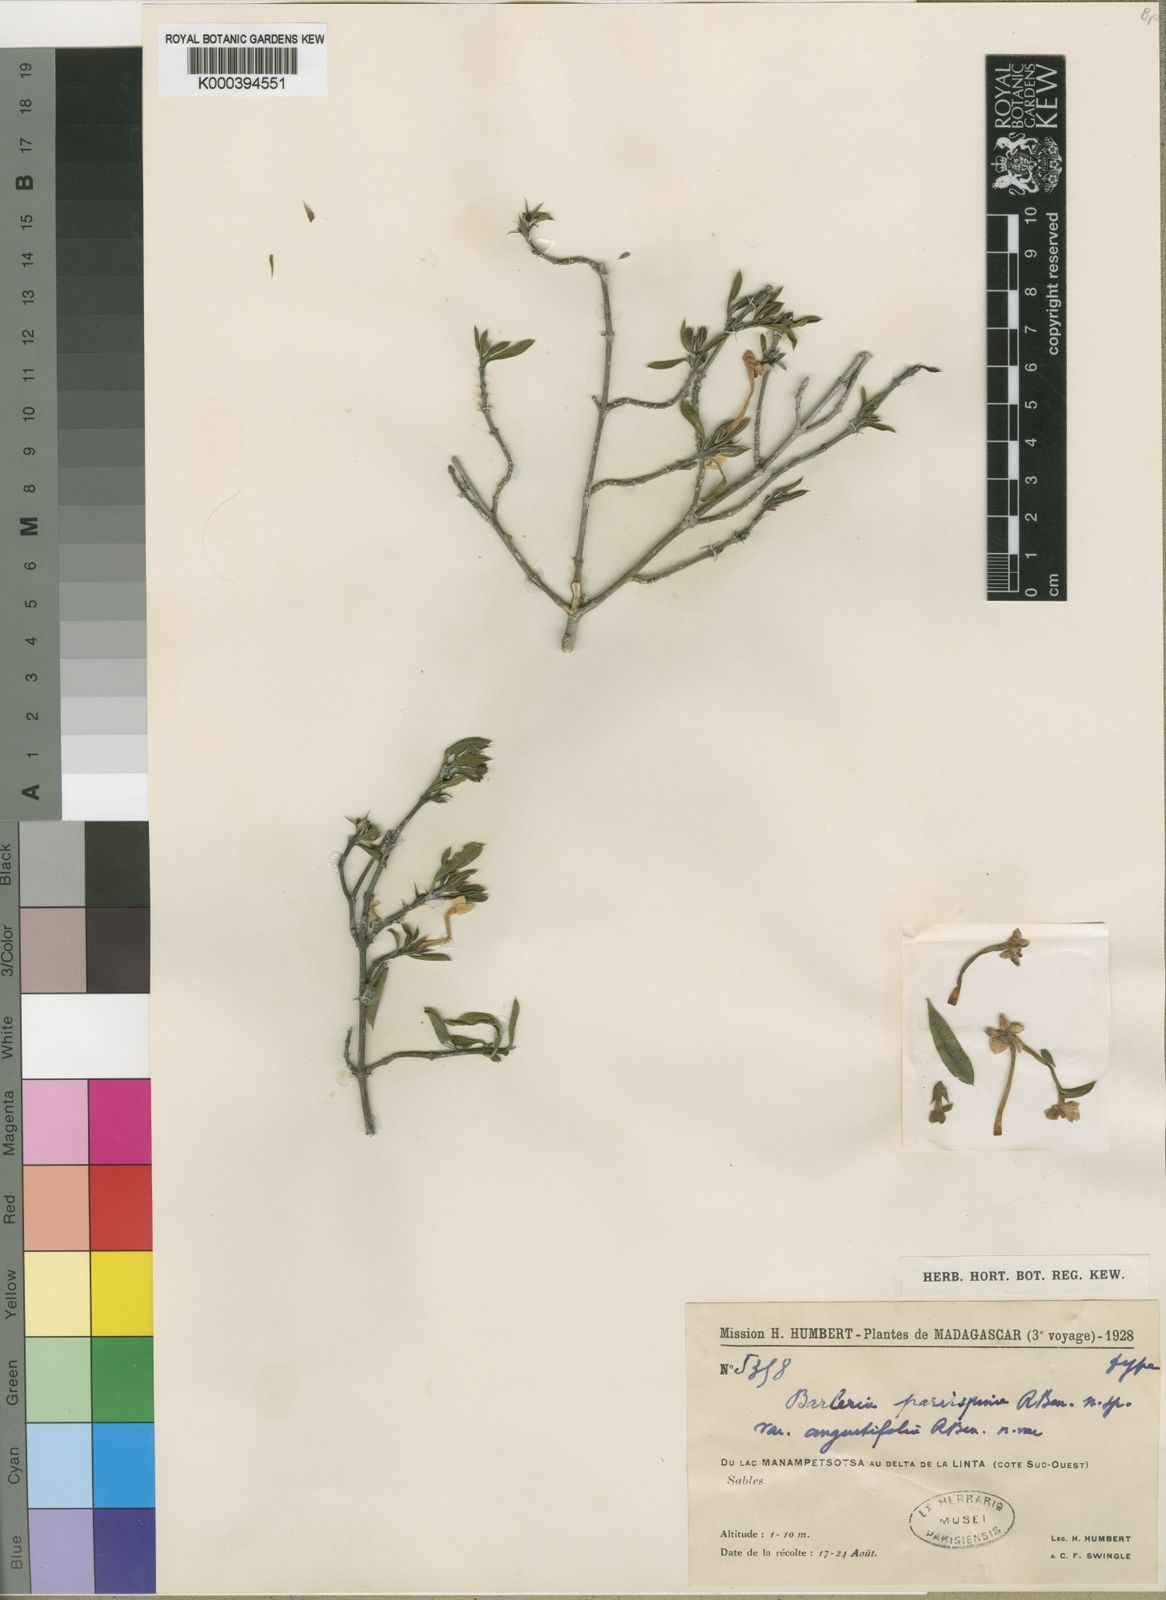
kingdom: Plantae
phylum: Tracheophyta
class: Magnoliopsida
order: Lamiales
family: Acanthaceae
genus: Barleria
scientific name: Barleria parvispina
